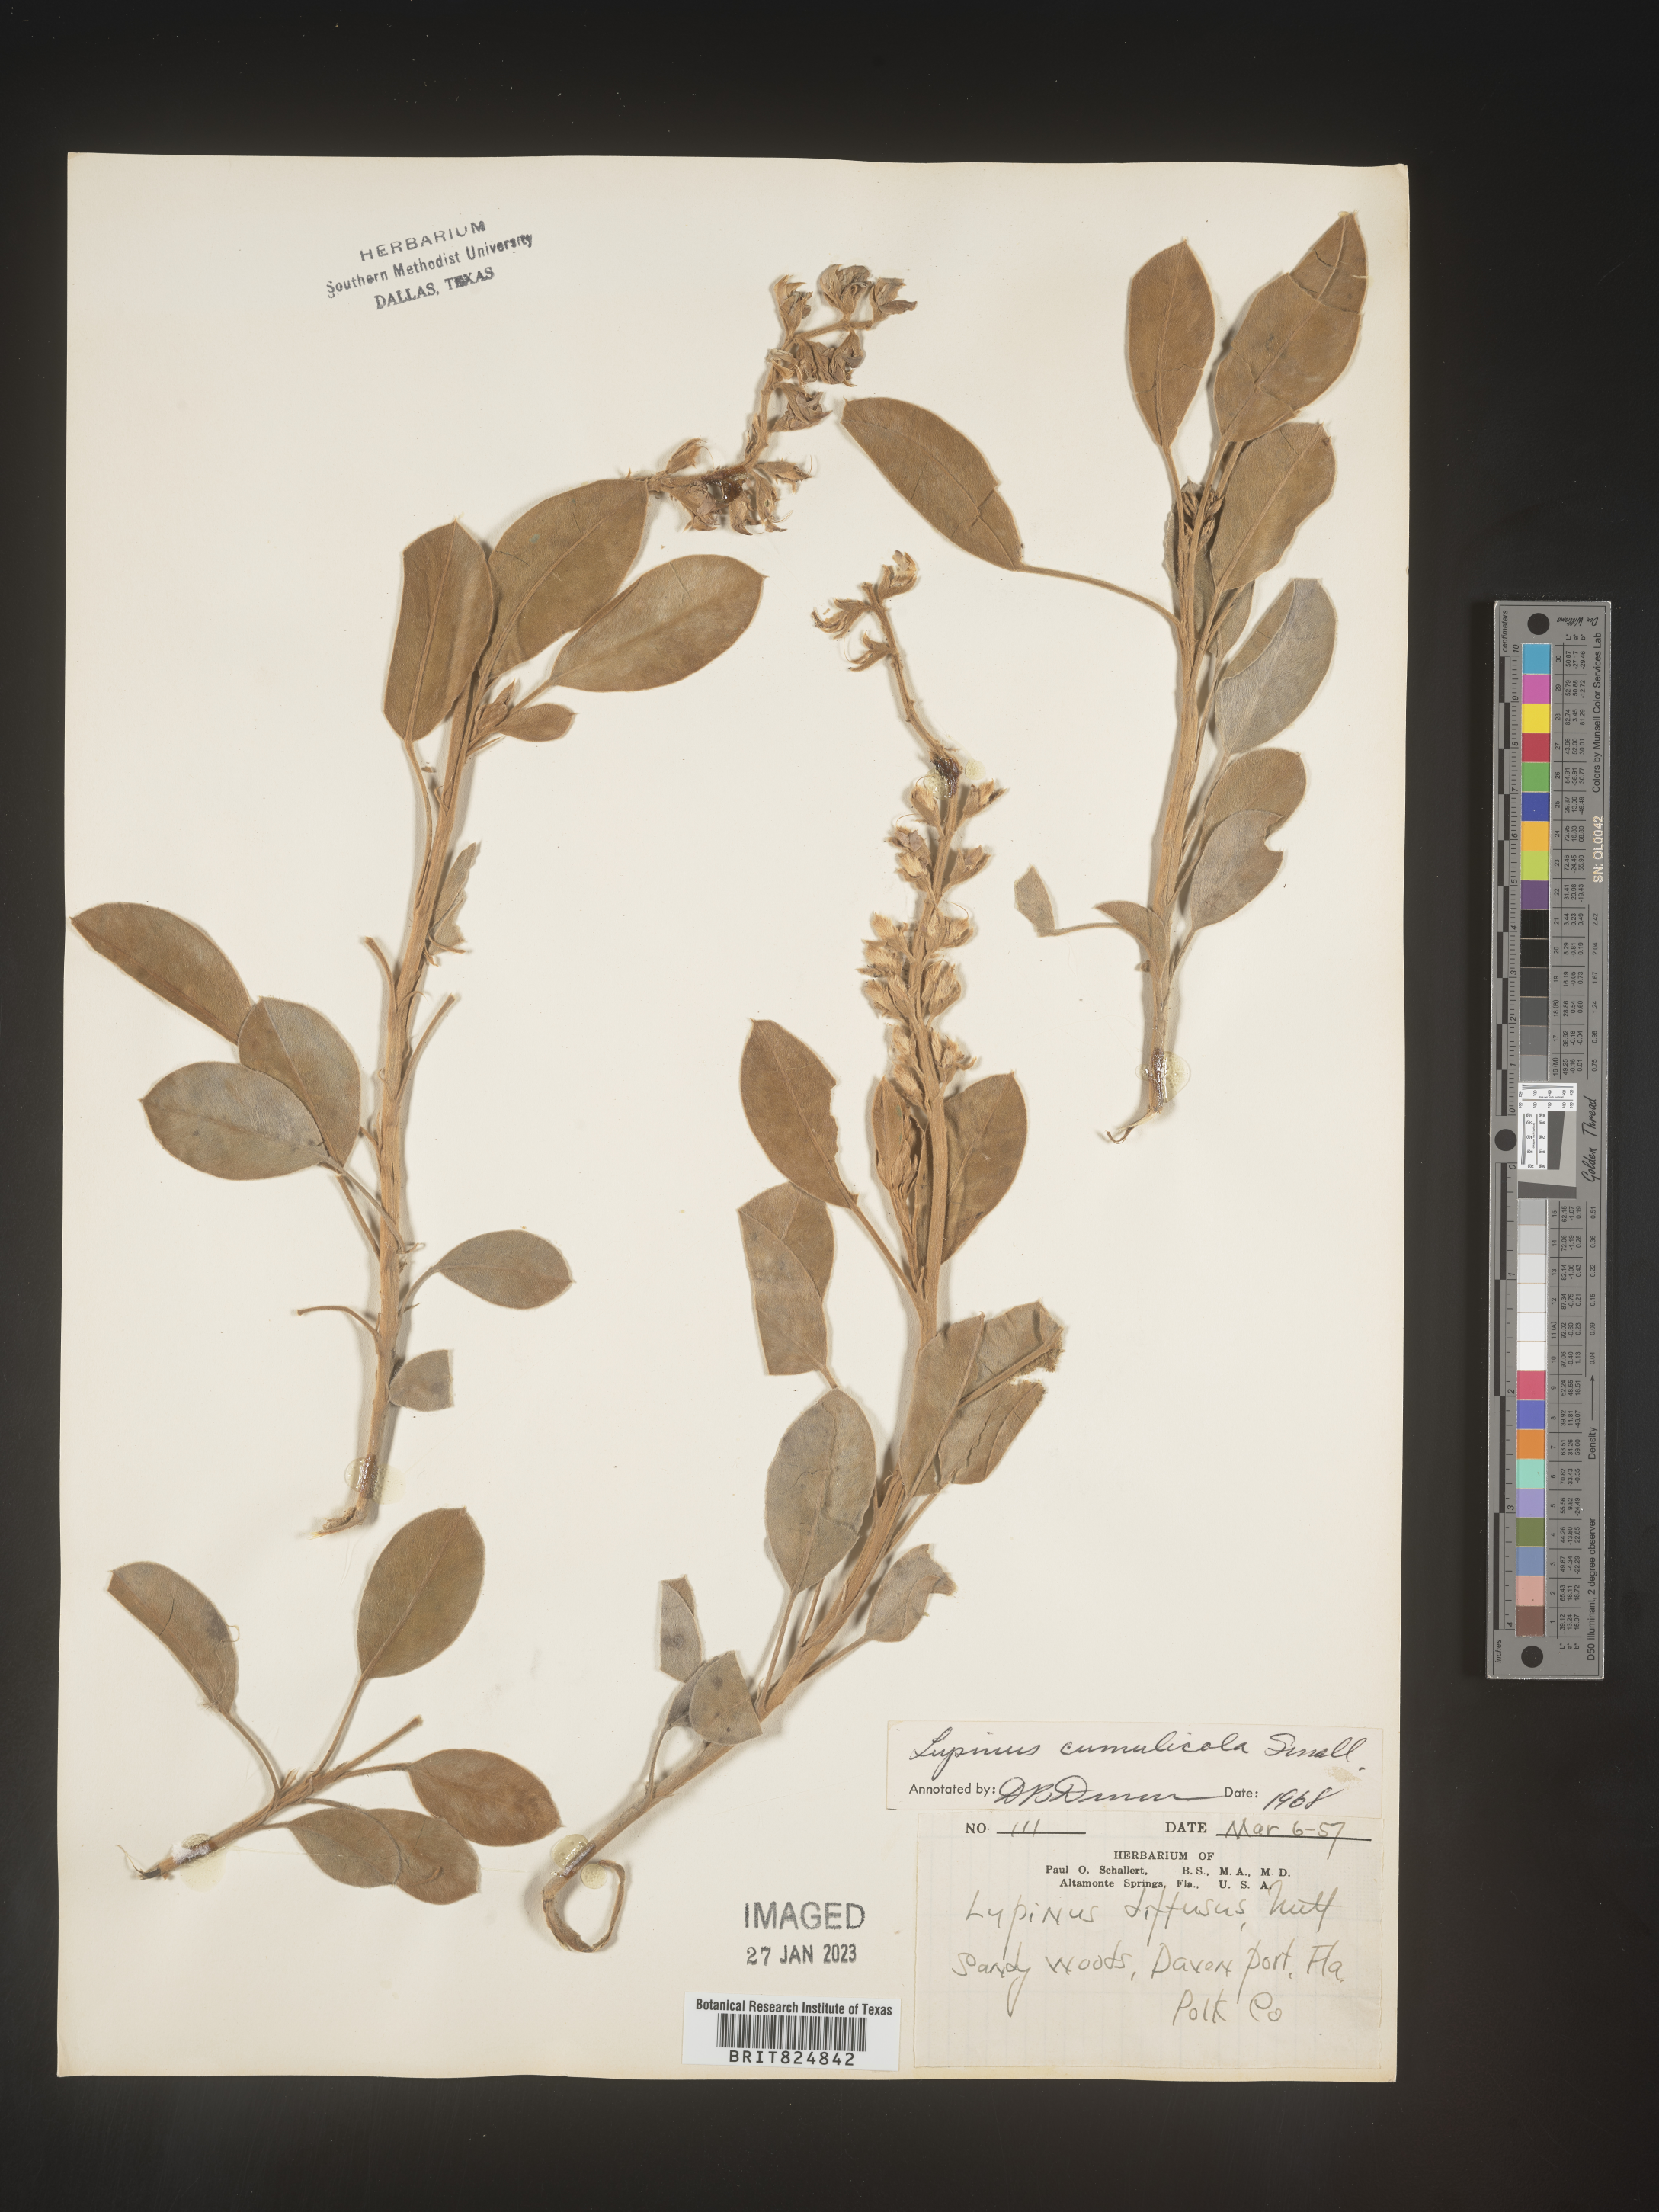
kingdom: Plantae
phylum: Tracheophyta
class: Magnoliopsida
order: Fabales
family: Fabaceae
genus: Lupinus
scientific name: Lupinus
